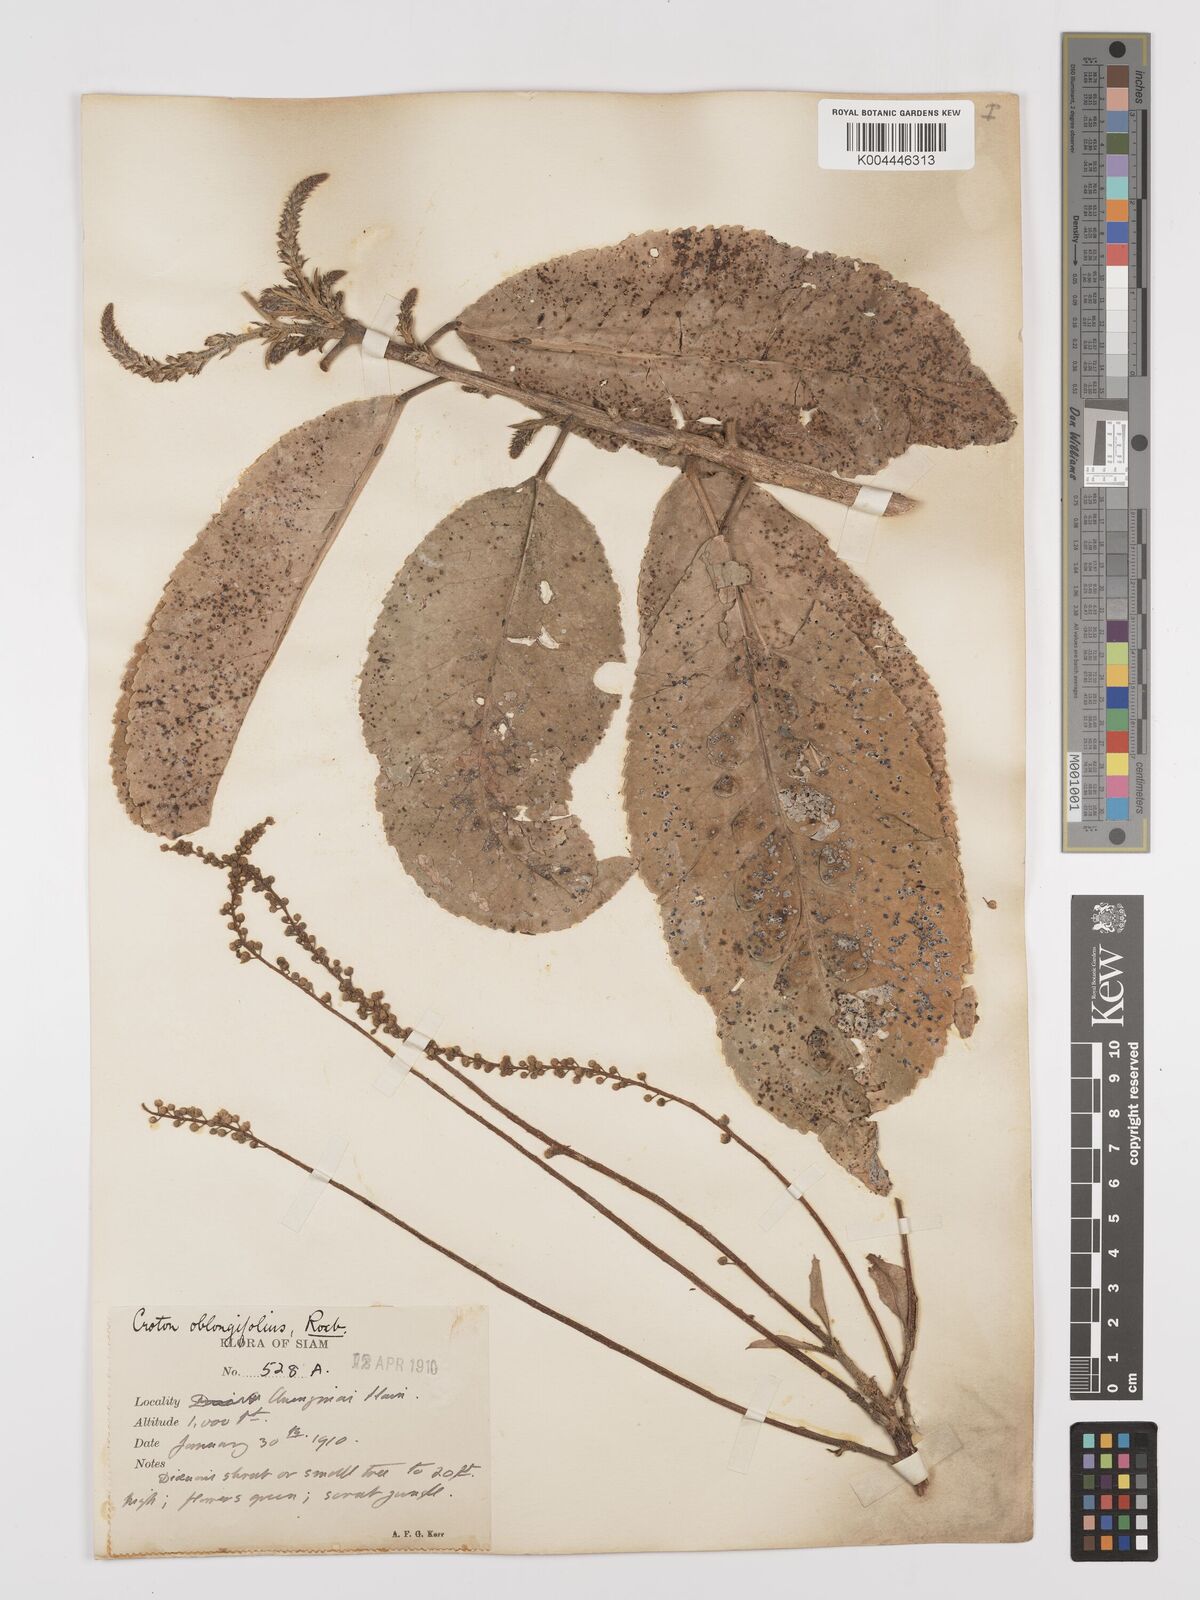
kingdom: Plantae
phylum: Tracheophyta
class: Magnoliopsida
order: Malpighiales
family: Euphorbiaceae
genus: Croton
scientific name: Croton
